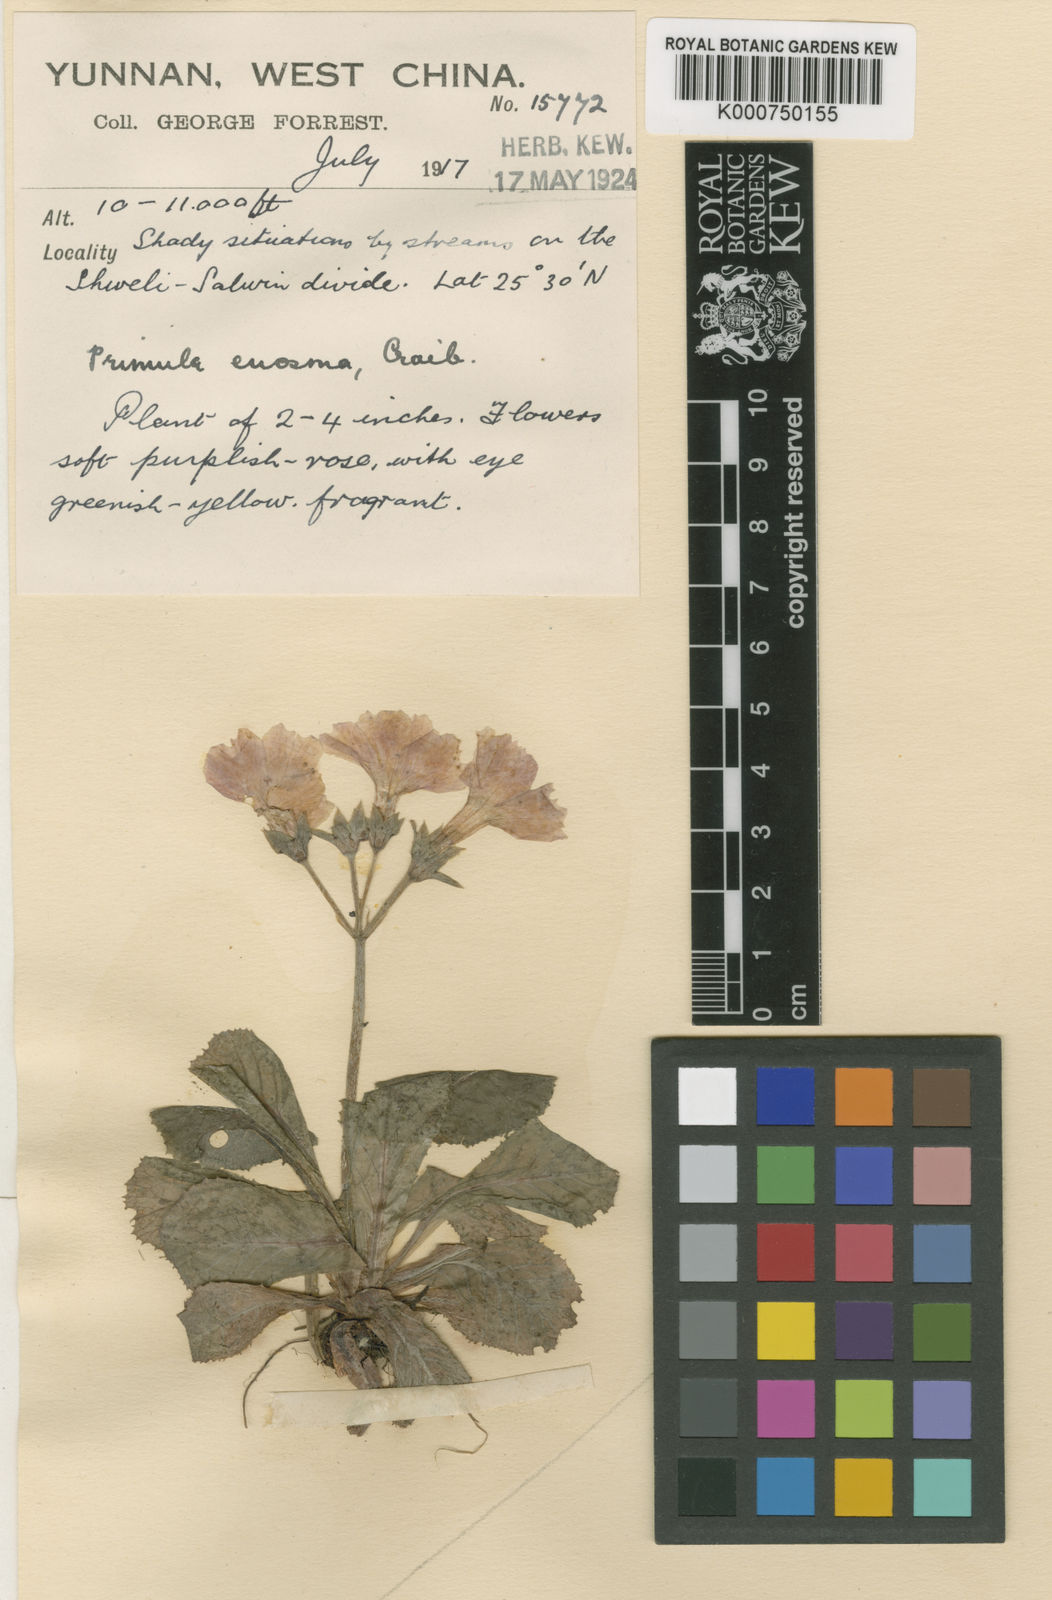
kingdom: Plantae
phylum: Tracheophyta
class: Magnoliopsida
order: Ericales
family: Primulaceae
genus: Primula
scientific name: Primula euosma
